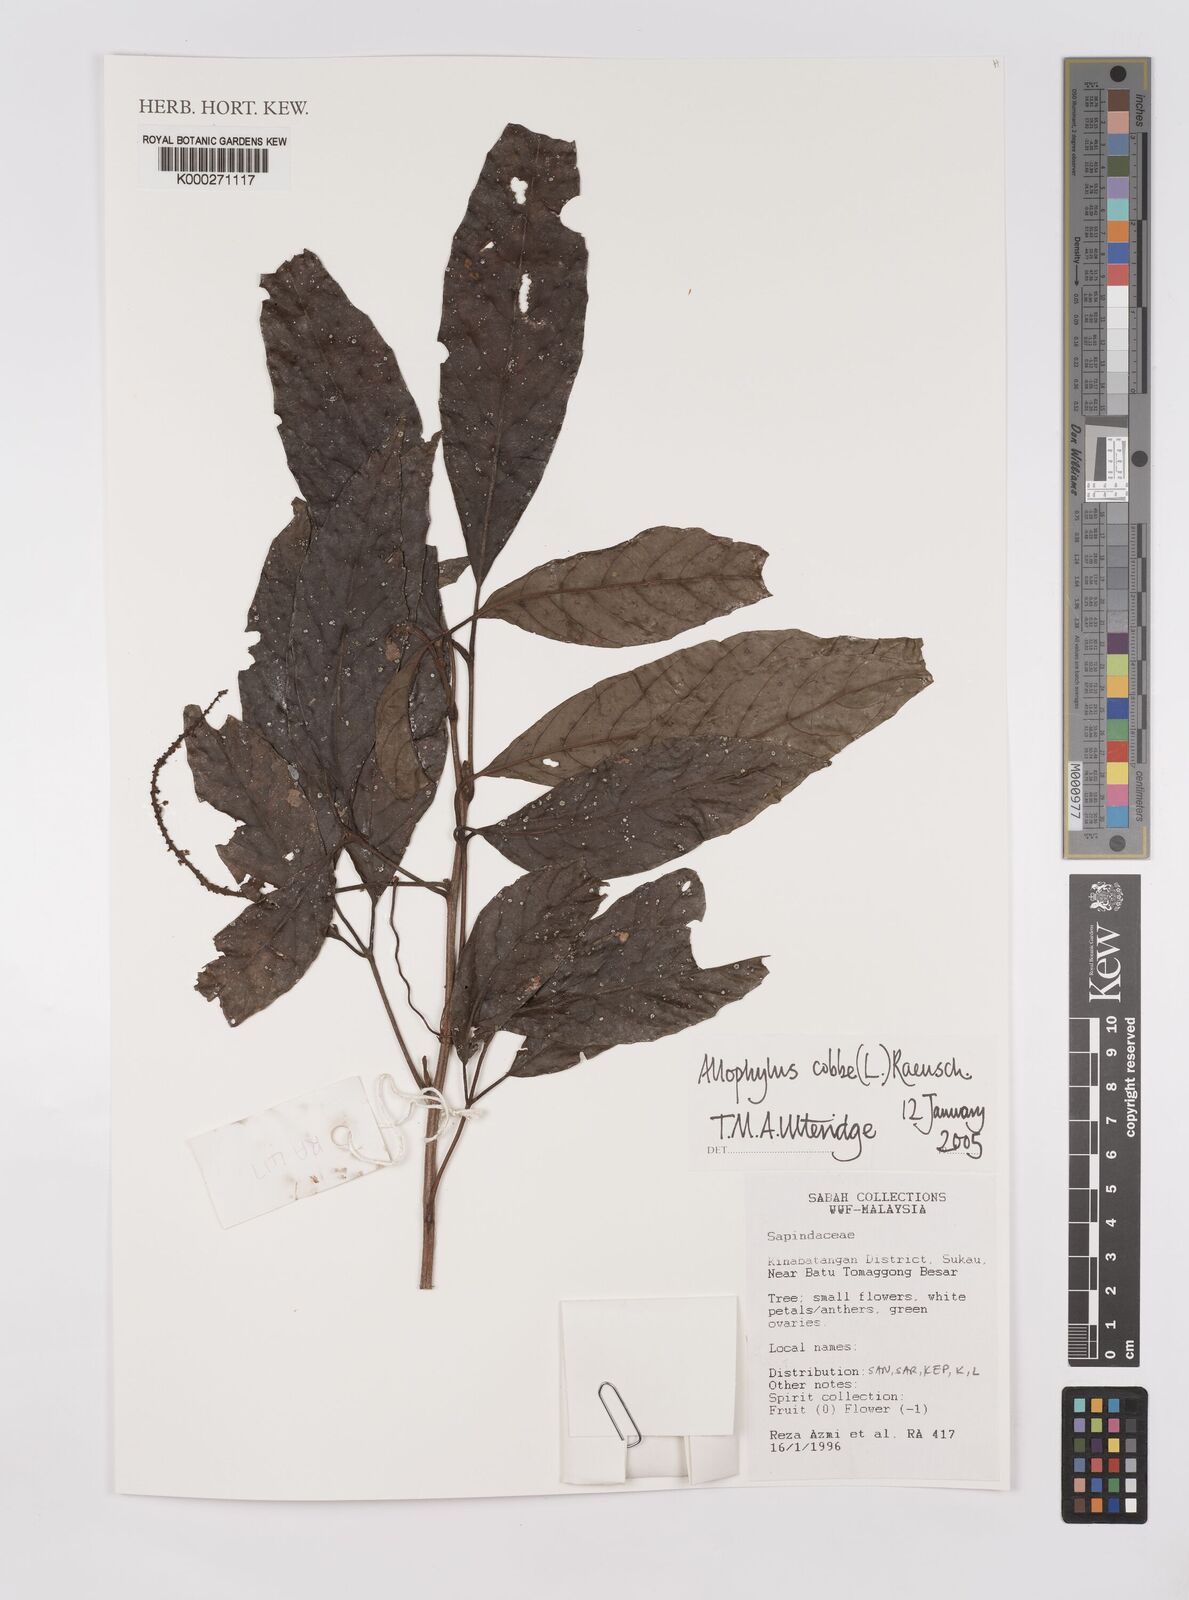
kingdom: Plantae
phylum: Tracheophyta
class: Magnoliopsida
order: Sapindales
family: Sapindaceae
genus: Allophylus
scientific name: Allophylus
